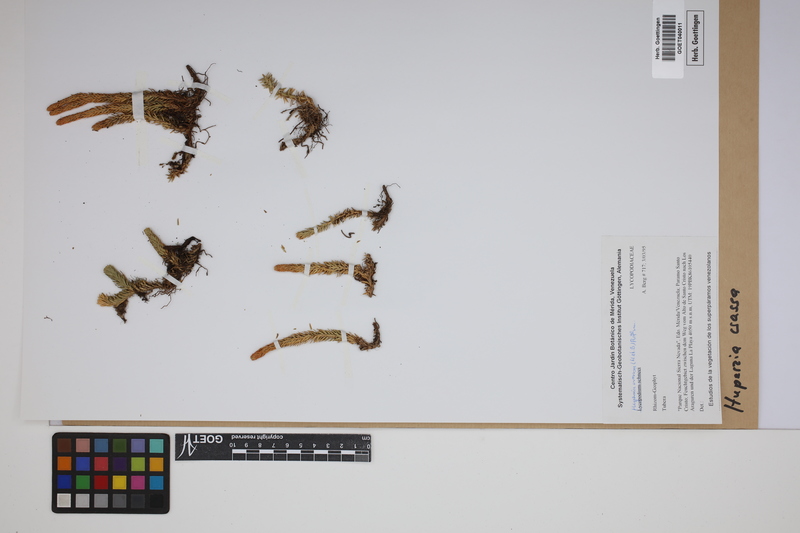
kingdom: Plantae
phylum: Tracheophyta
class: Lycopodiopsida
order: Lycopodiales
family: Lycopodiaceae
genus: Phlegmariurus
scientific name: Phlegmariurus crassus
